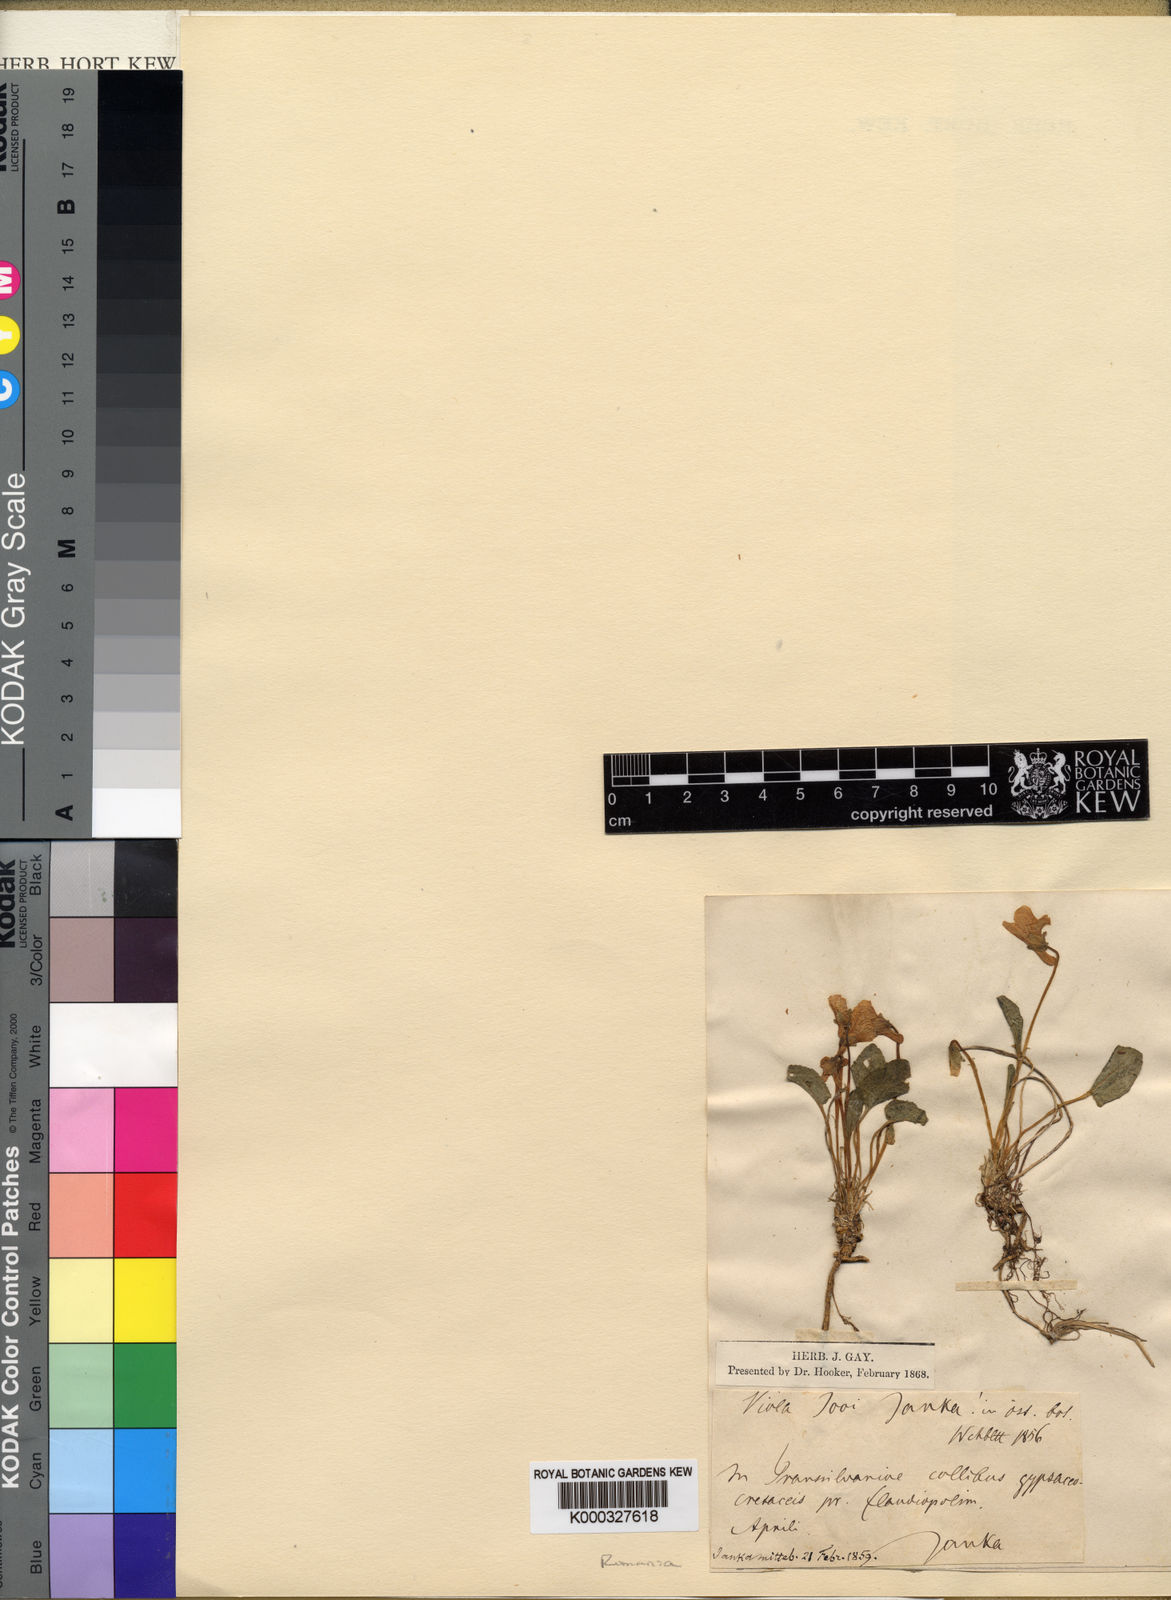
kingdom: Plantae
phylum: Tracheophyta
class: Magnoliopsida
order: Malpighiales
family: Violaceae
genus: Viola
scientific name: Viola jooi
